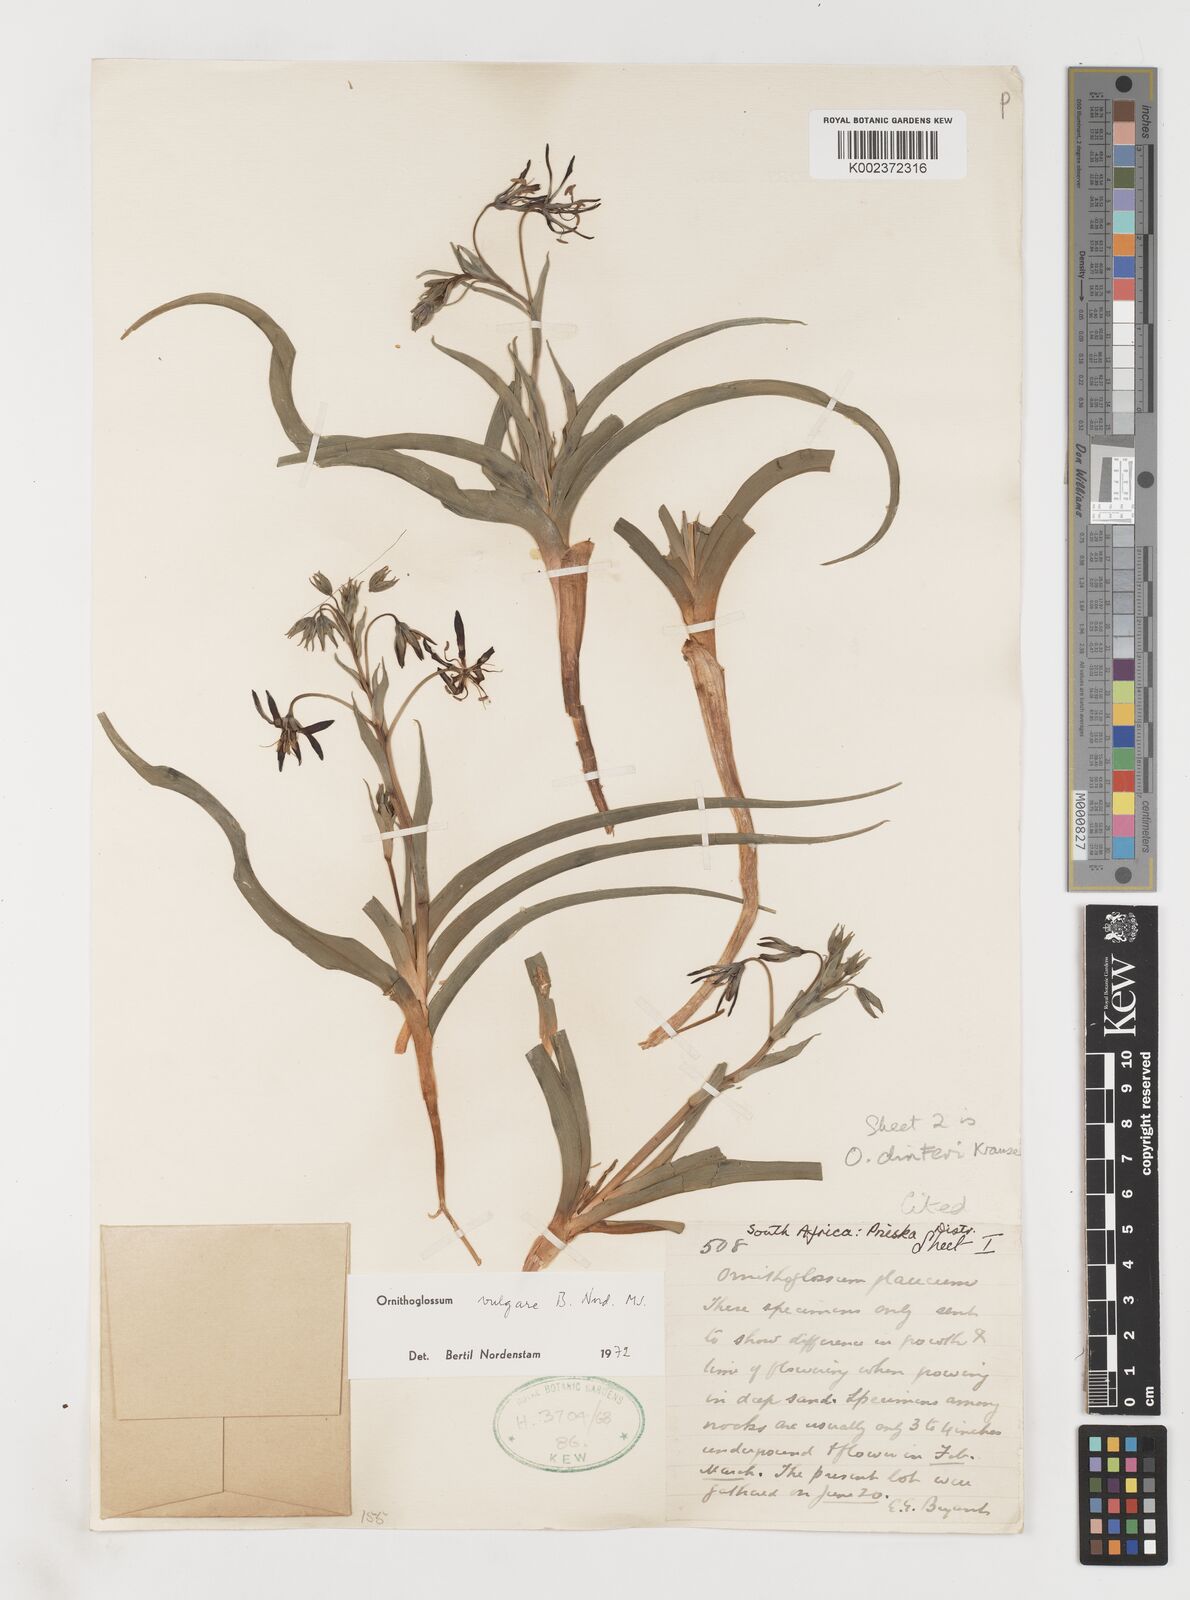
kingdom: Plantae
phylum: Tracheophyta
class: Liliopsida
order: Liliales
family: Colchicaceae
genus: Ornithoglossum
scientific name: Ornithoglossum vulgare
